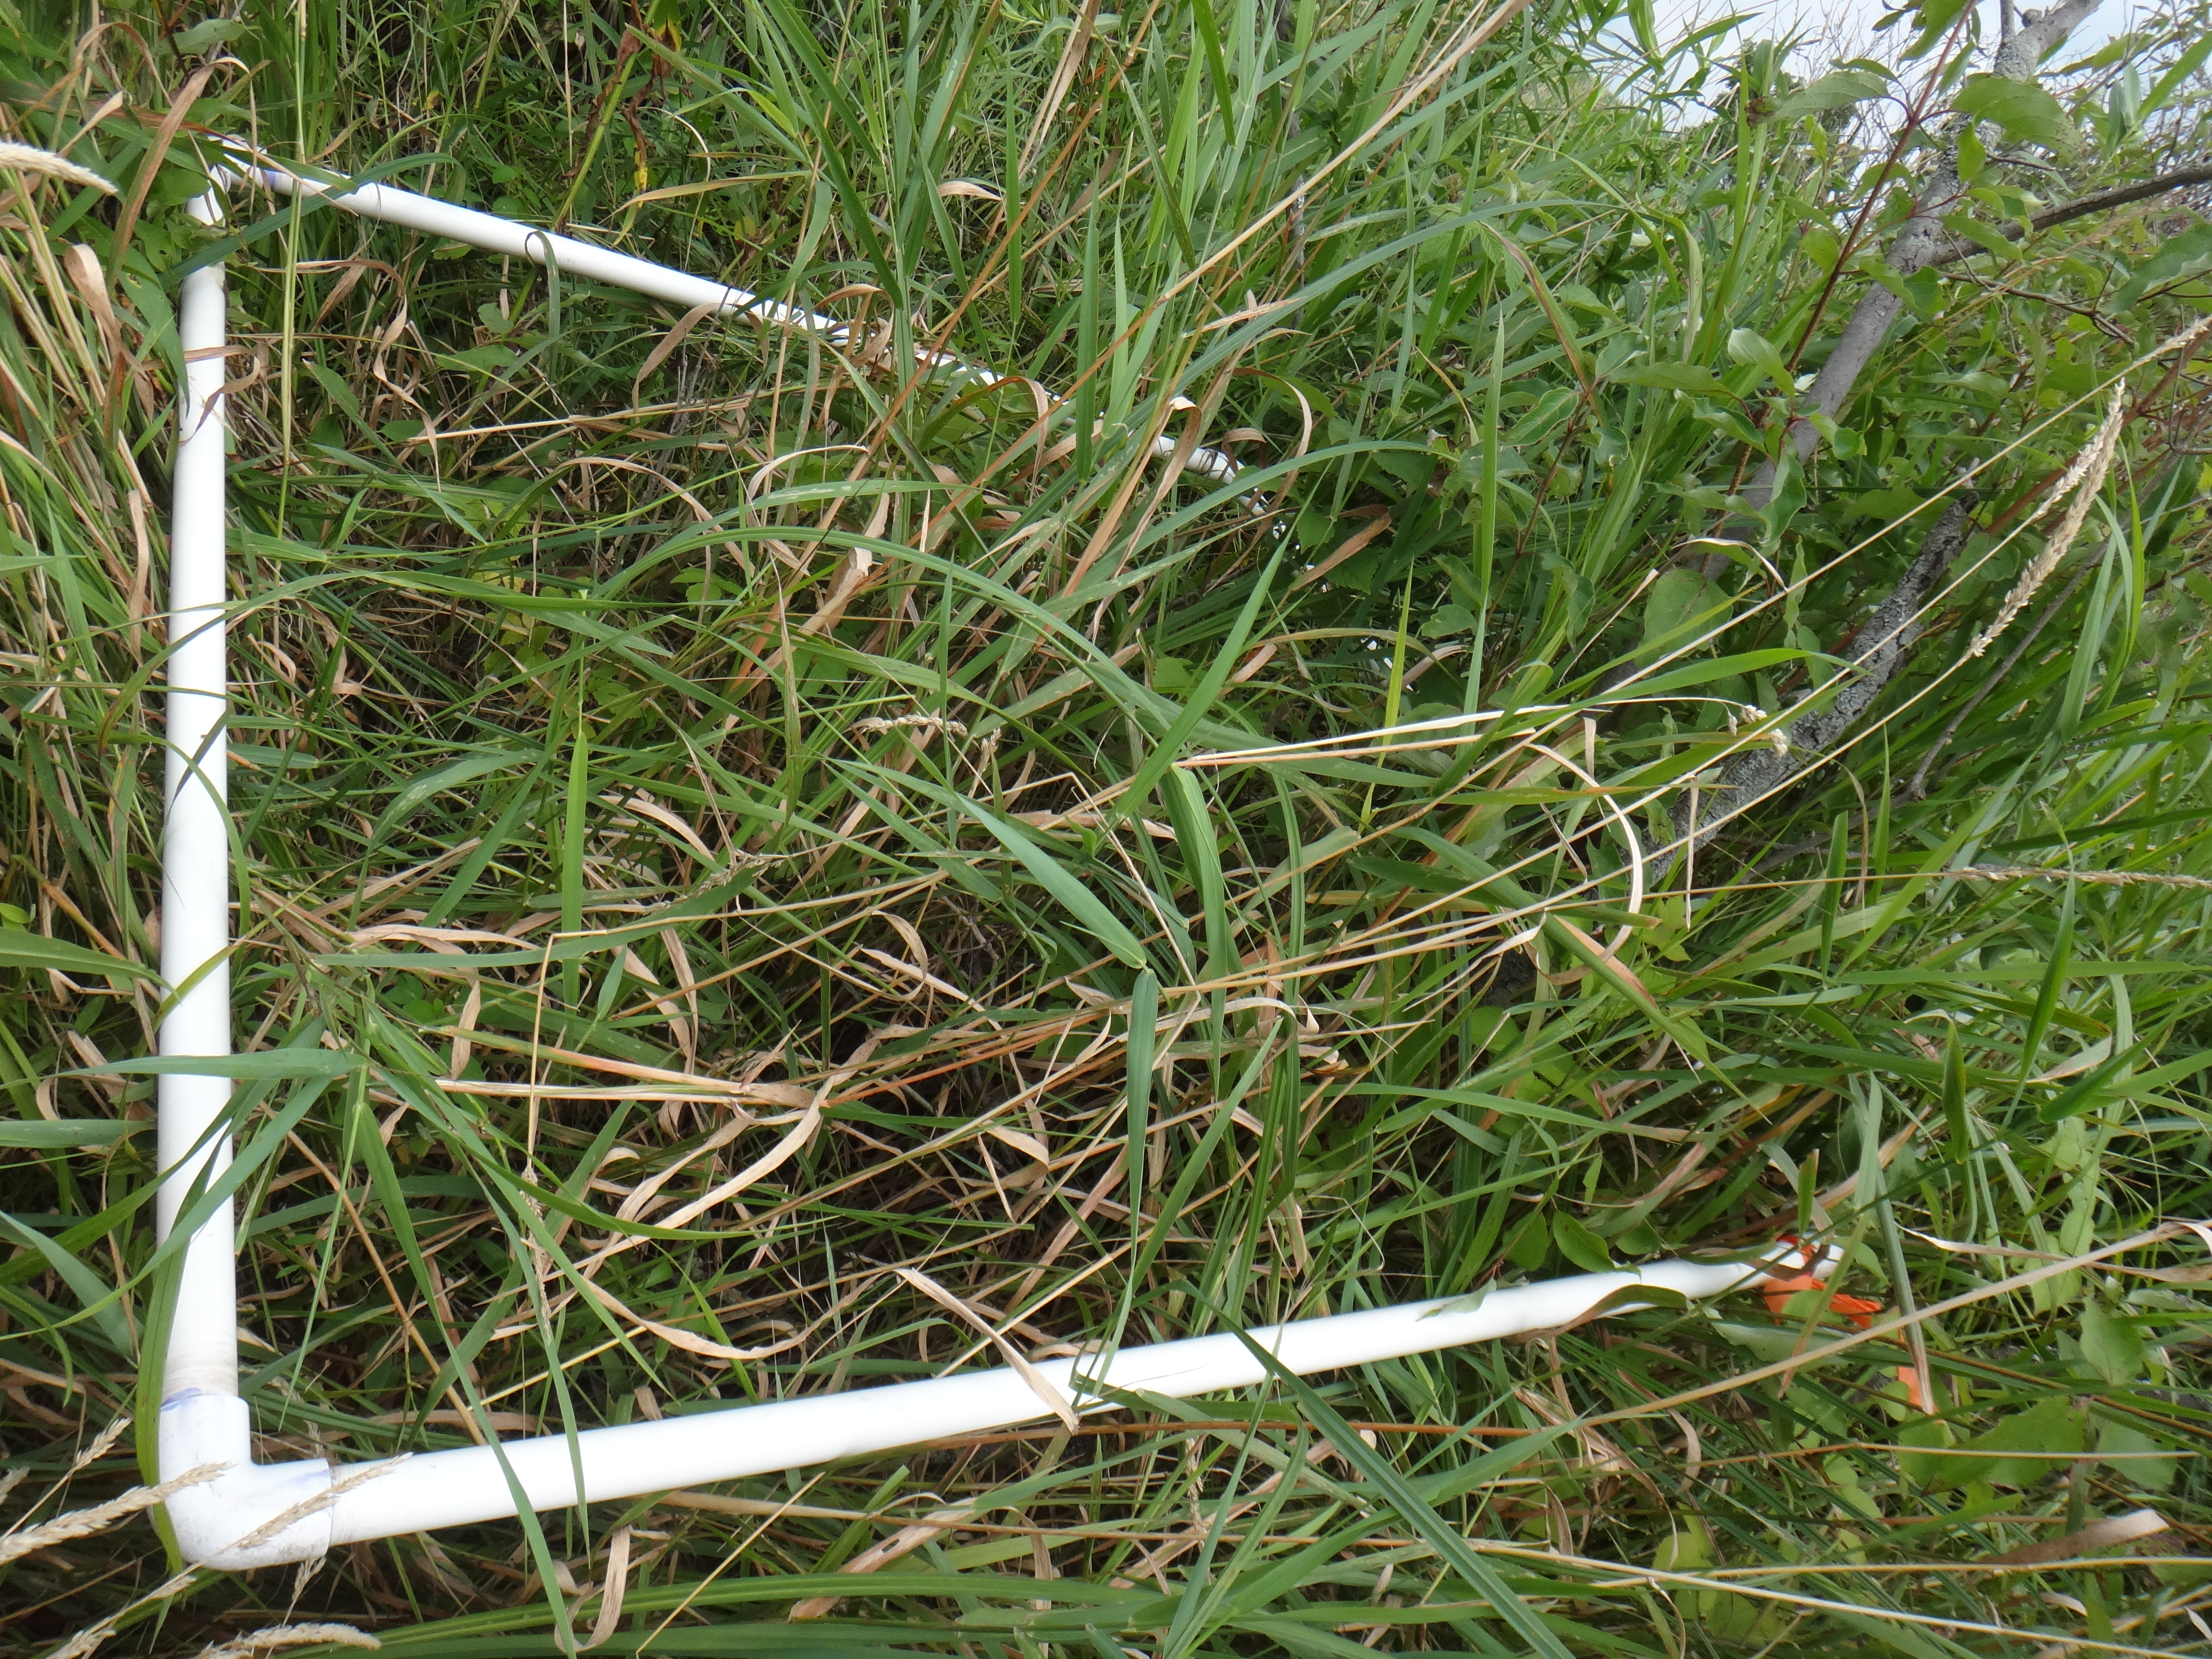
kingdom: Plantae
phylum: Tracheophyta
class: Liliopsida
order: Poales
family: Cyperaceae
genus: Carex
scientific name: Carex stricta
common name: Hummock sedge
